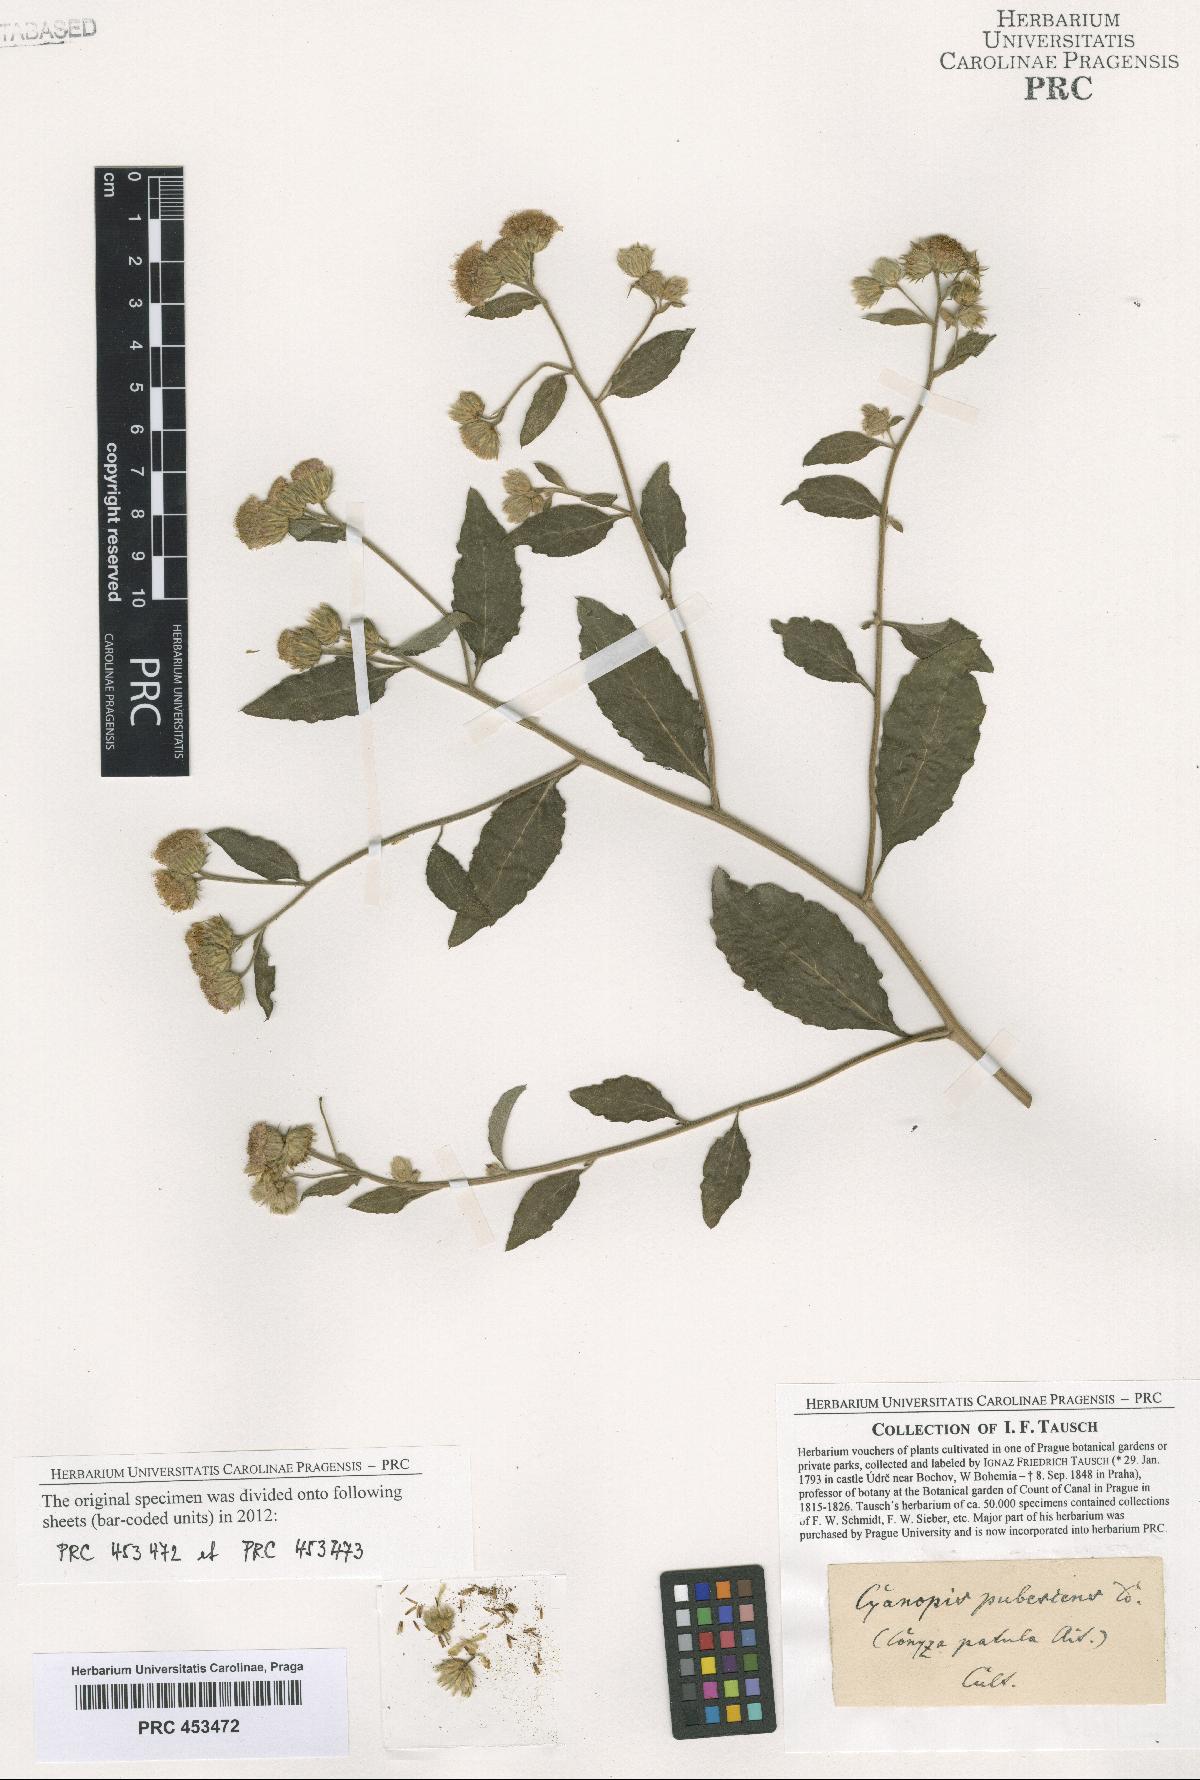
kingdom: Plantae
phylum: Tracheophyta
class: Magnoliopsida
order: Asterales
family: Asteraceae
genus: Vernonia
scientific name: Vernonia
